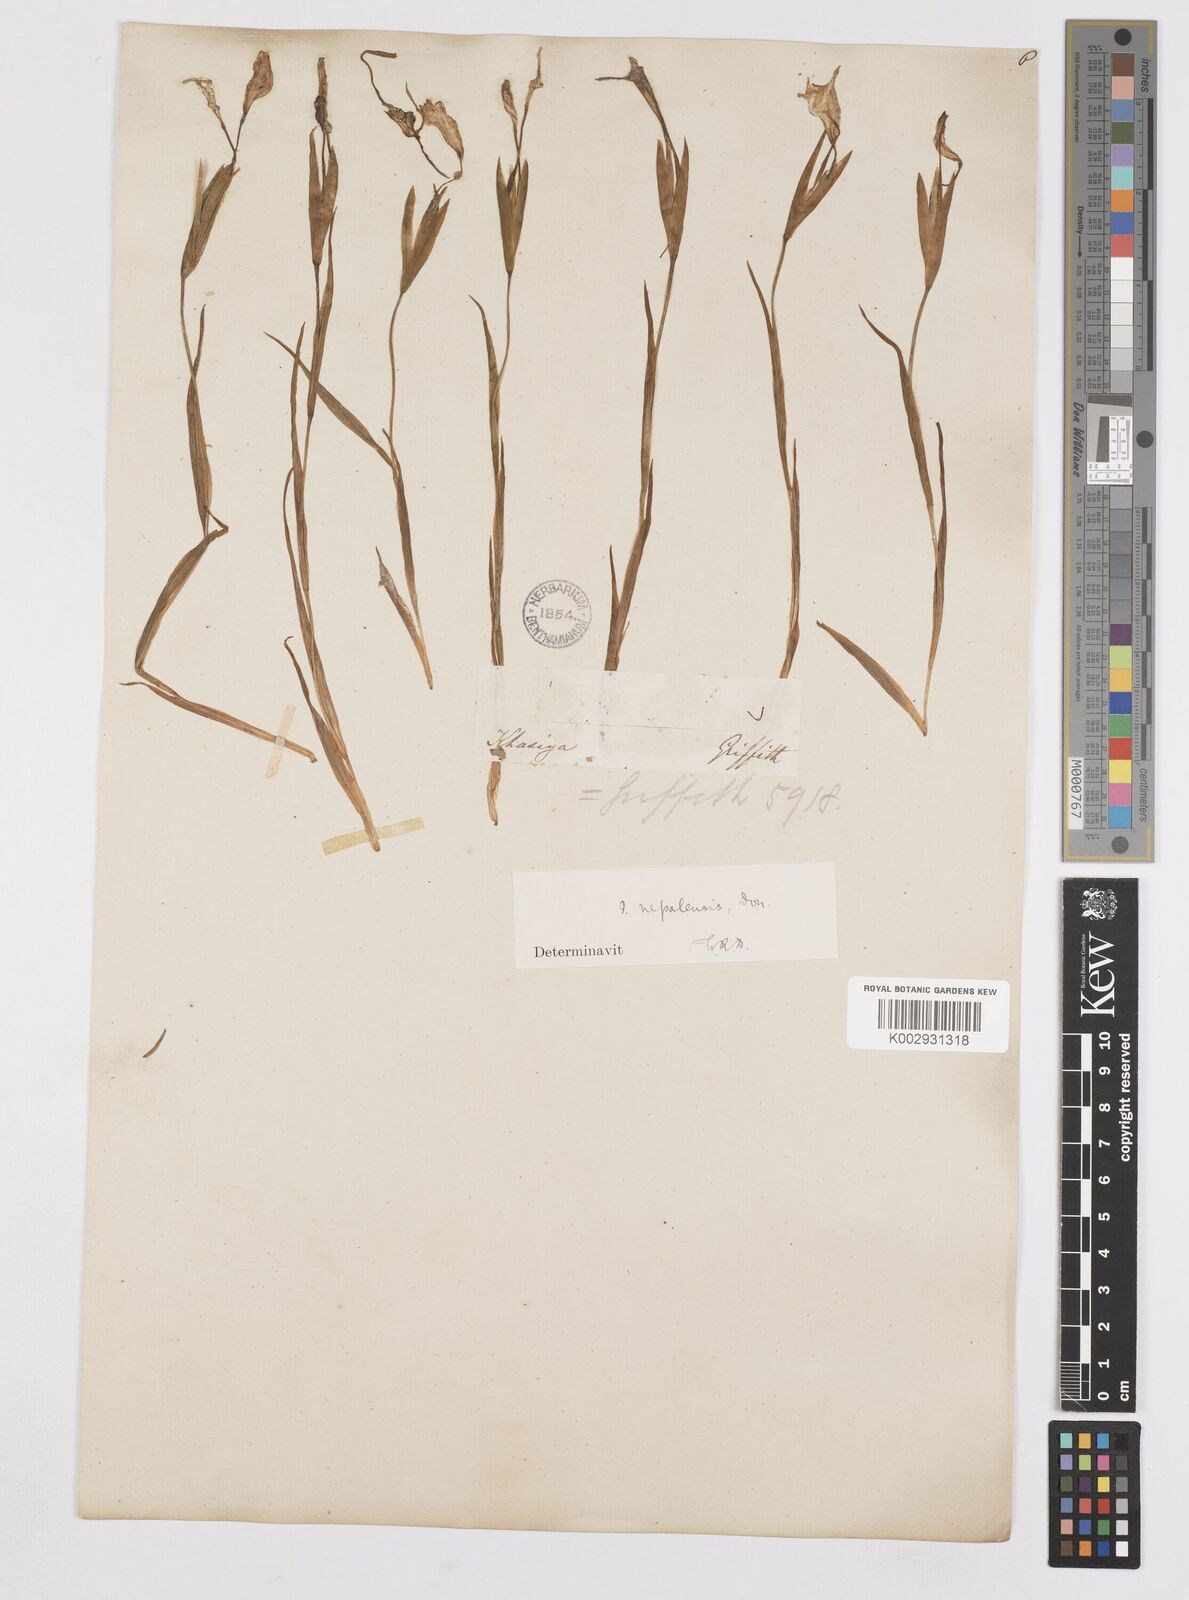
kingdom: Plantae
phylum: Tracheophyta
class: Liliopsida
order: Asparagales
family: Iridaceae
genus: Iris
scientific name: Iris decora
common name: Nepal iris
